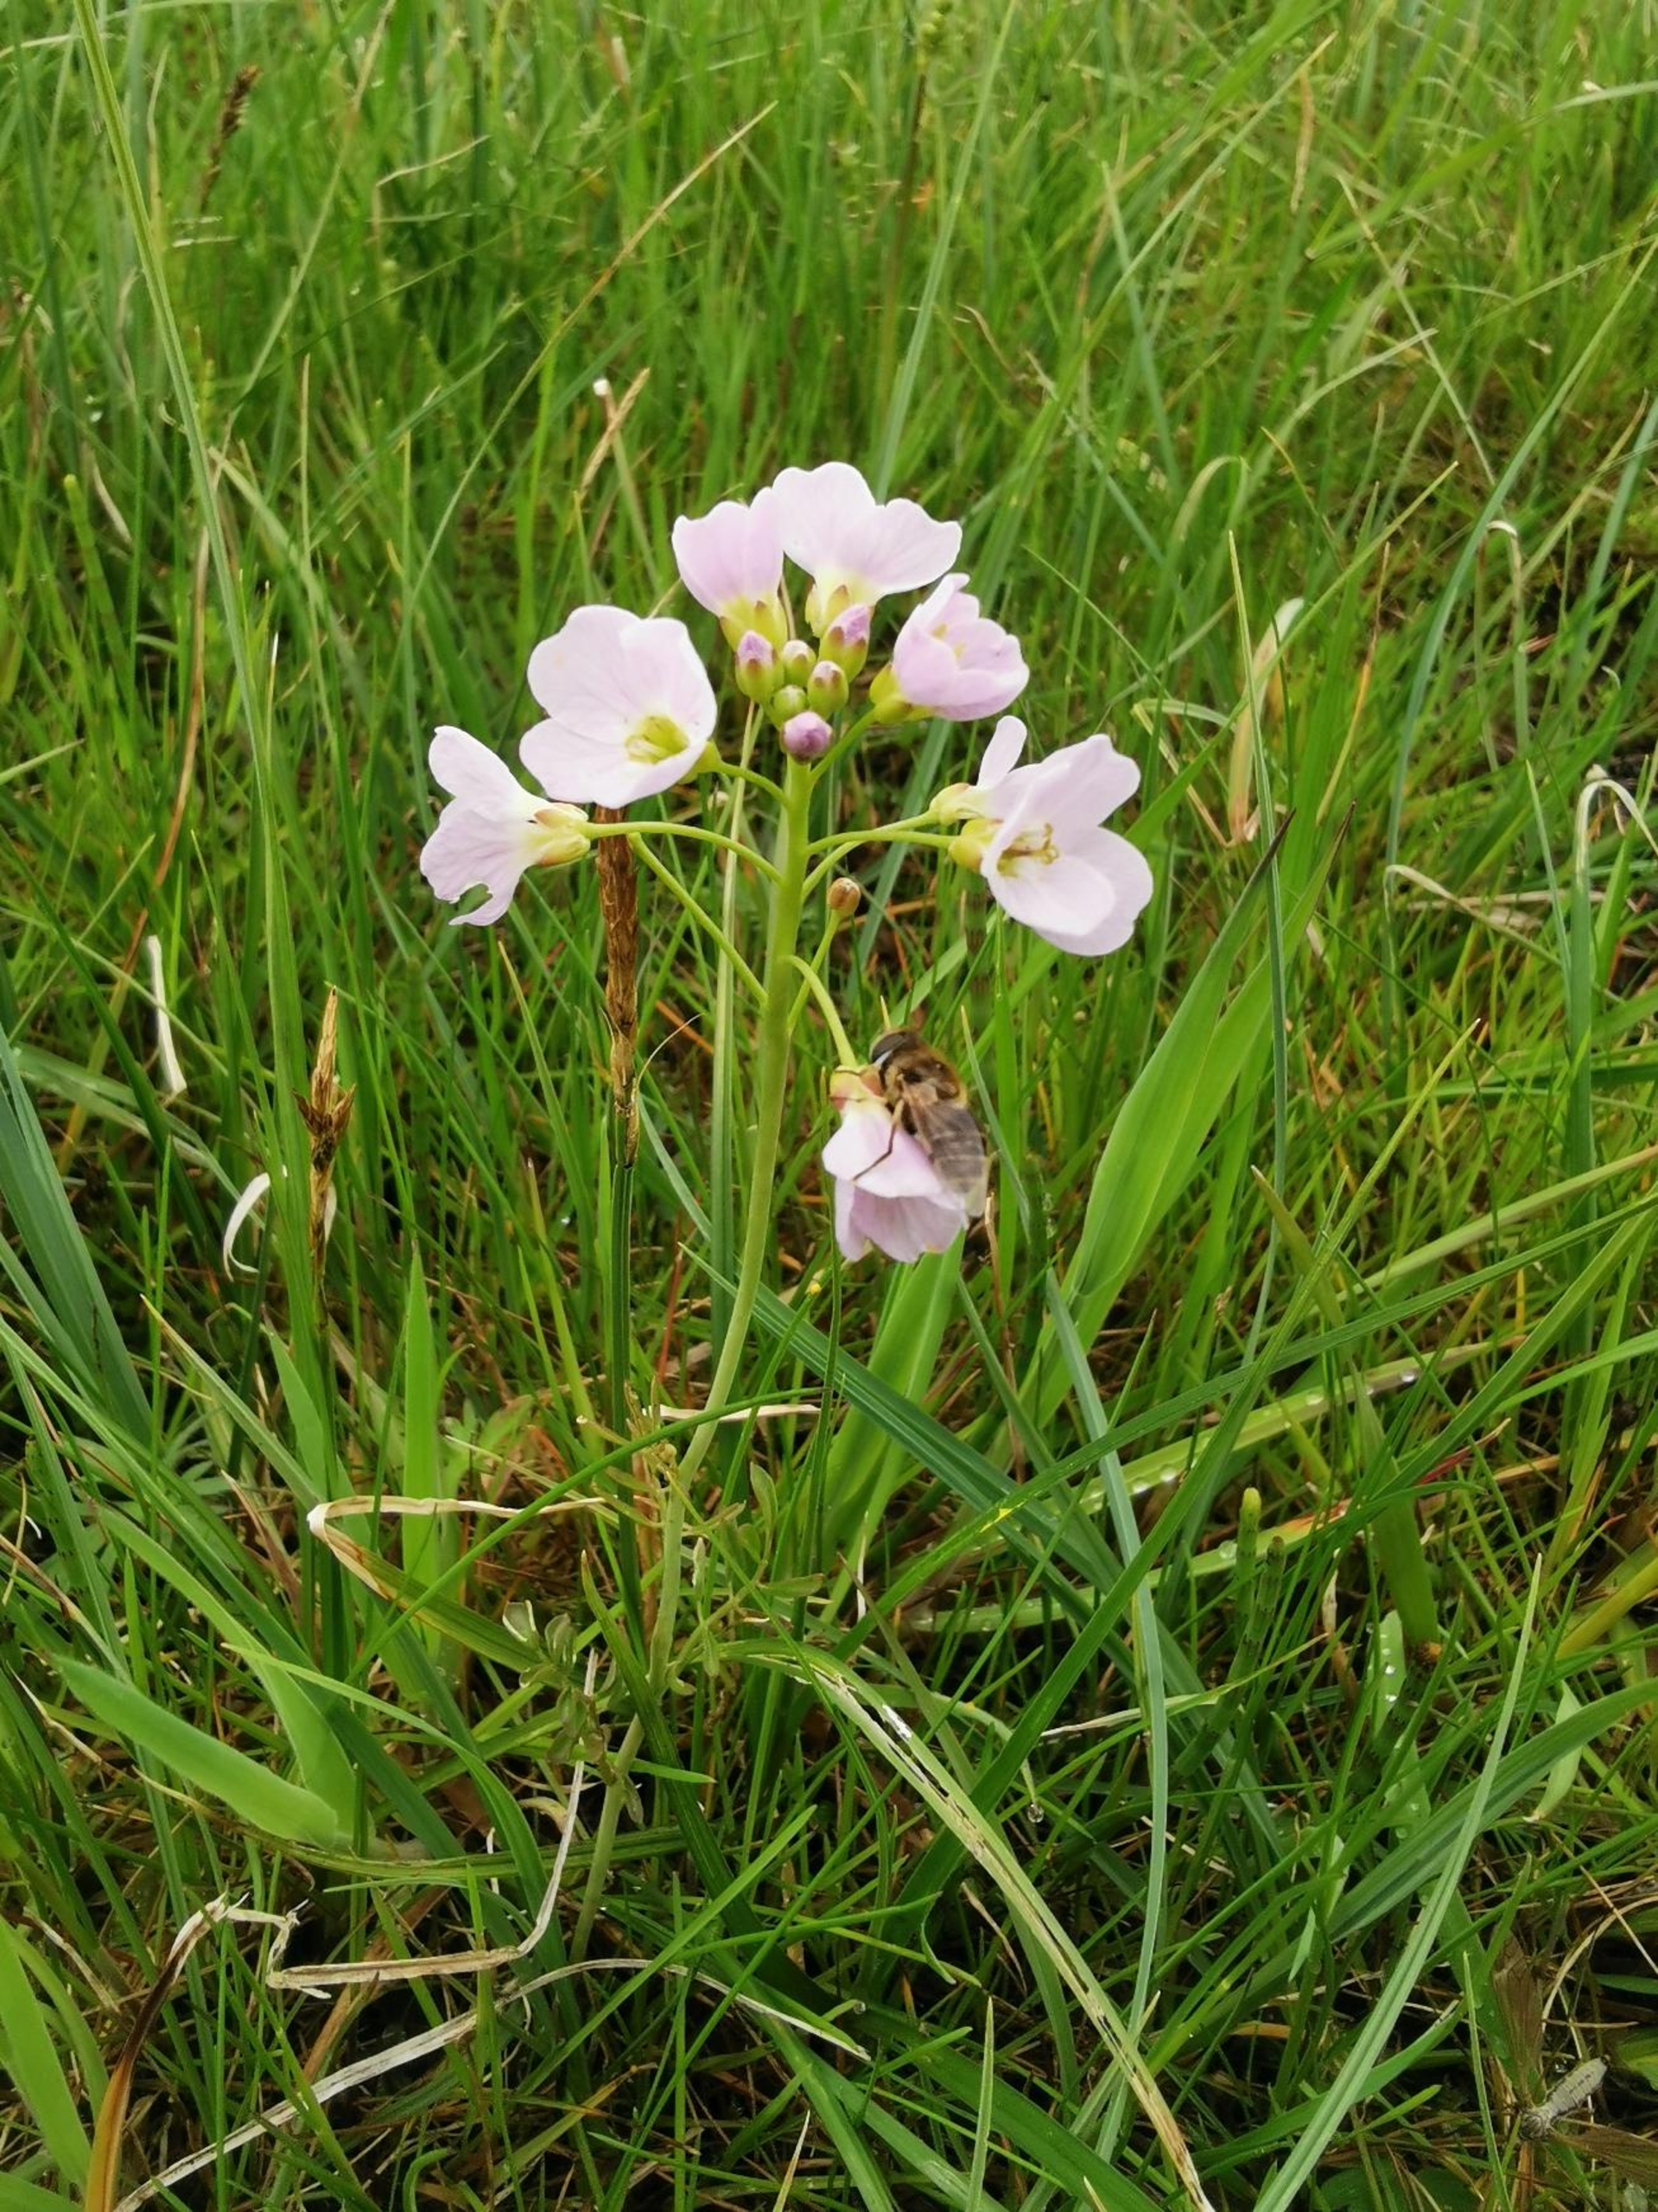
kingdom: Plantae
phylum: Tracheophyta
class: Magnoliopsida
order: Brassicales
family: Brassicaceae
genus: Cardamine
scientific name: Cardamine pratensis
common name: Engkarse
